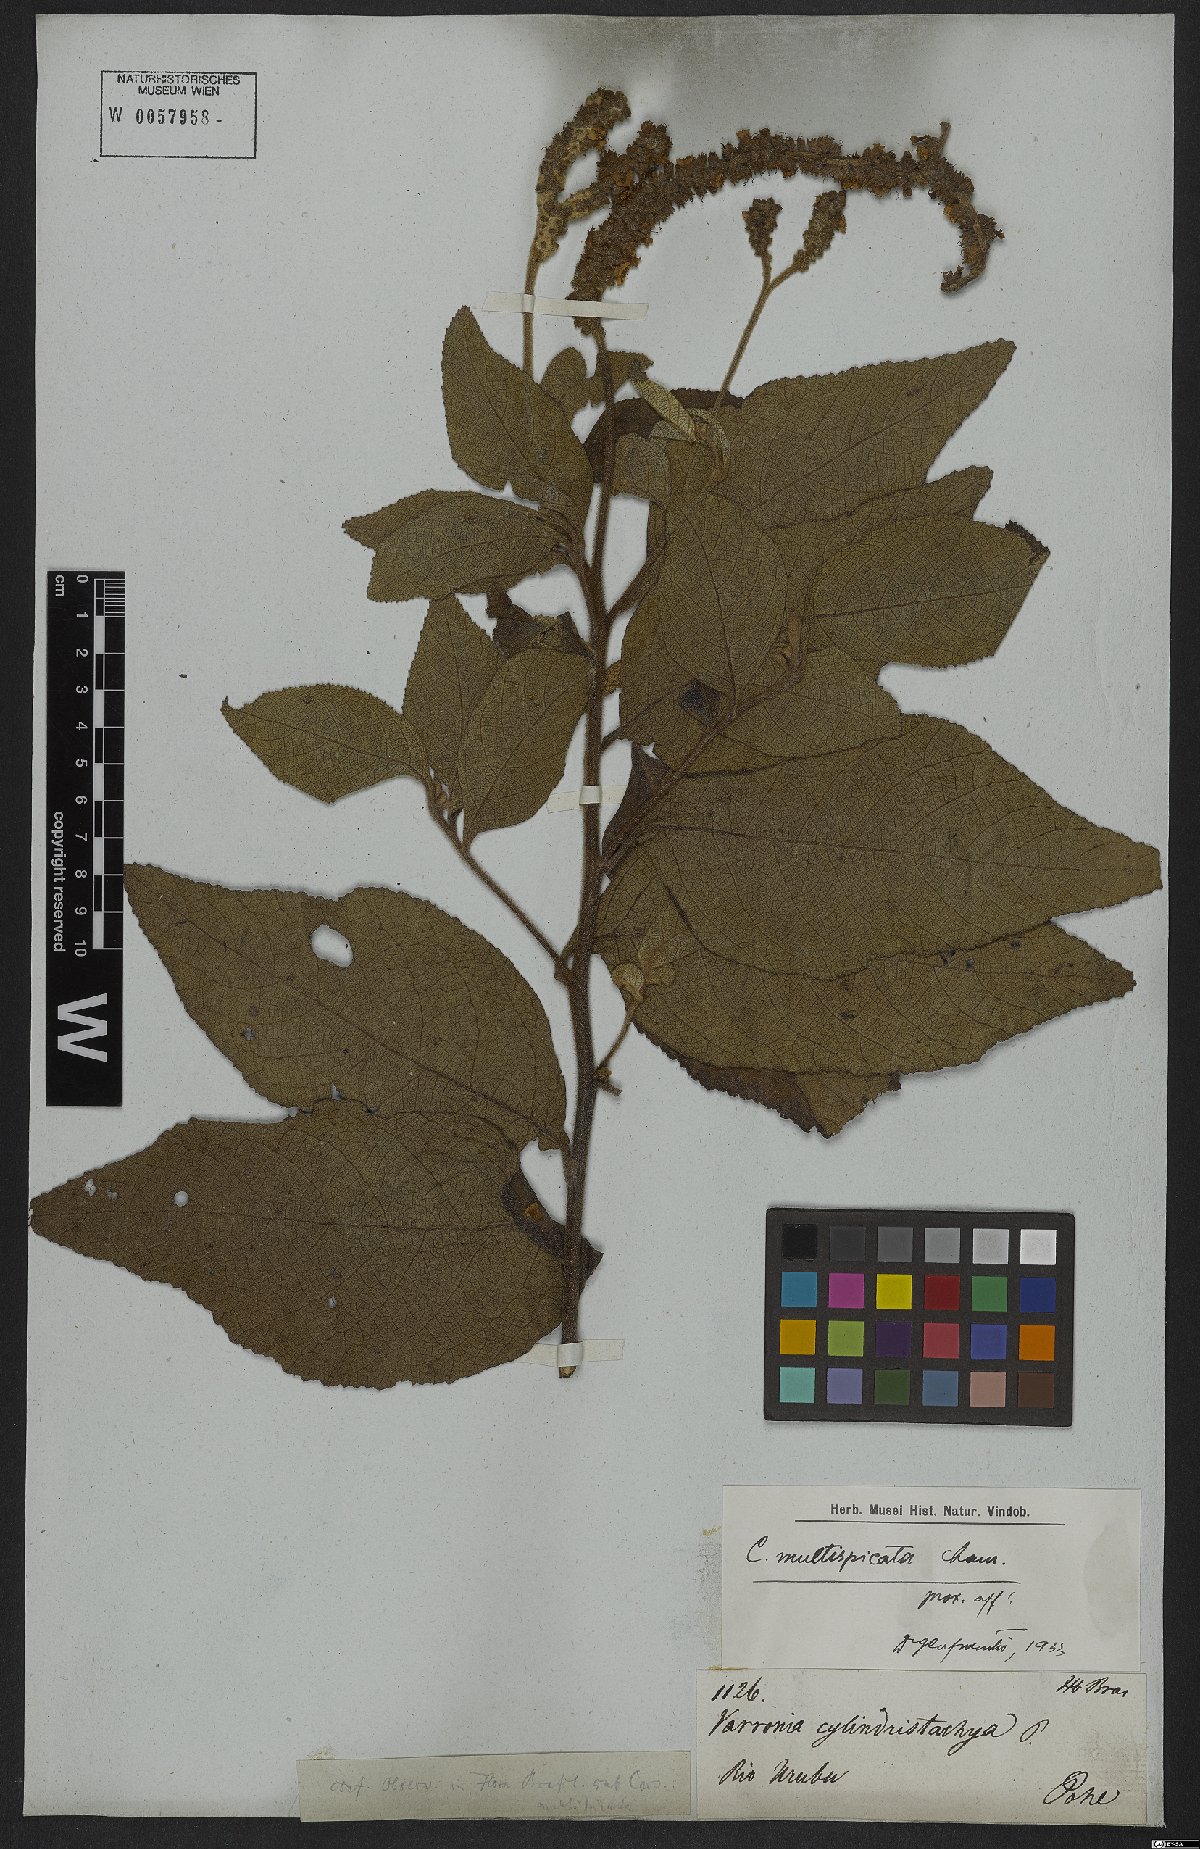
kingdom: Plantae
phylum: Tracheophyta
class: Magnoliopsida
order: Boraginales
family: Cordiaceae
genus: Varronia
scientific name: Varronia multispicata
